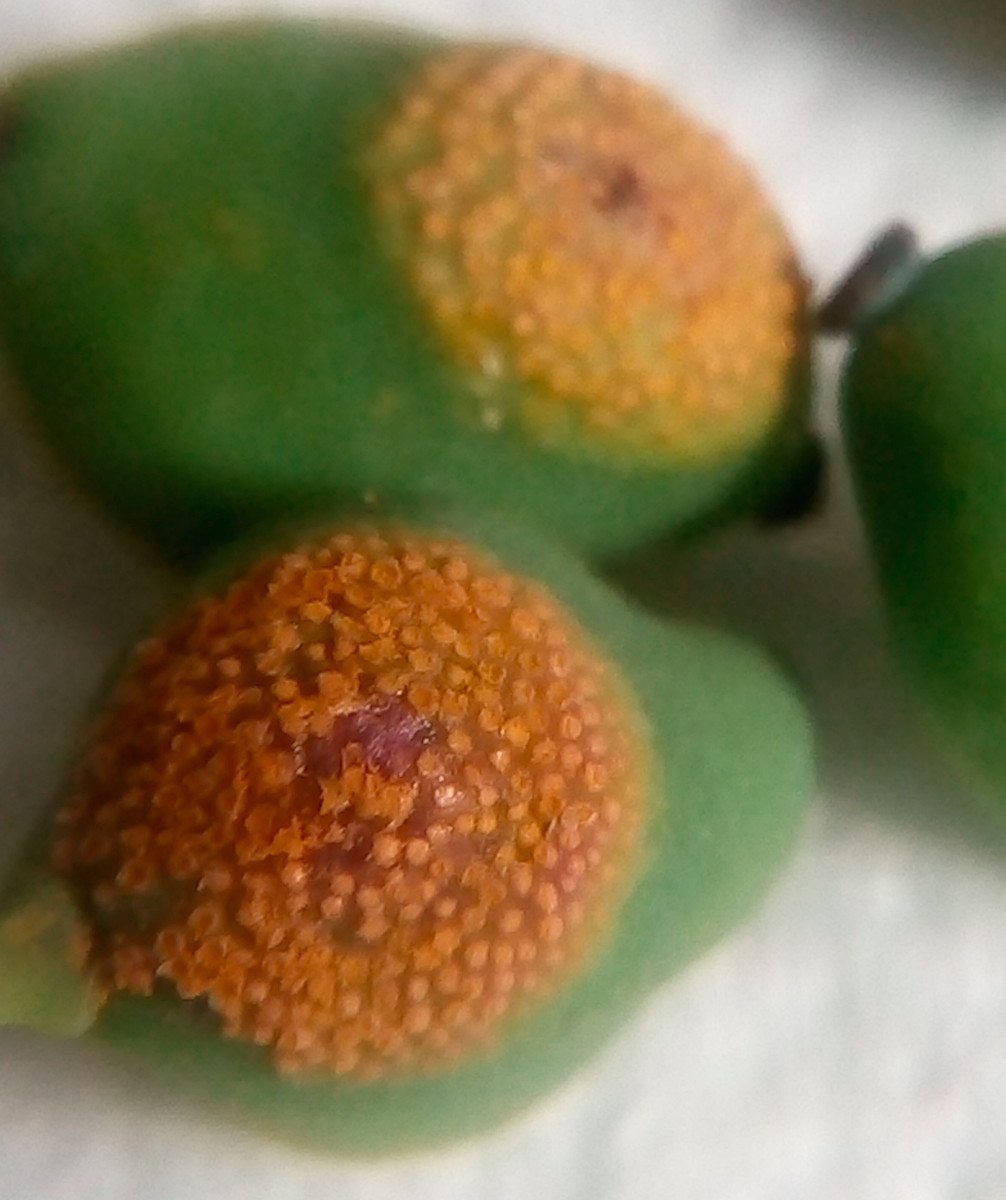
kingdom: Fungi
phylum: Basidiomycota
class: Pucciniomycetes
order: Pucciniales
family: Pucciniaceae
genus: Cumminsiella
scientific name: Cumminsiella mirabilissima
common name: mahonierust
